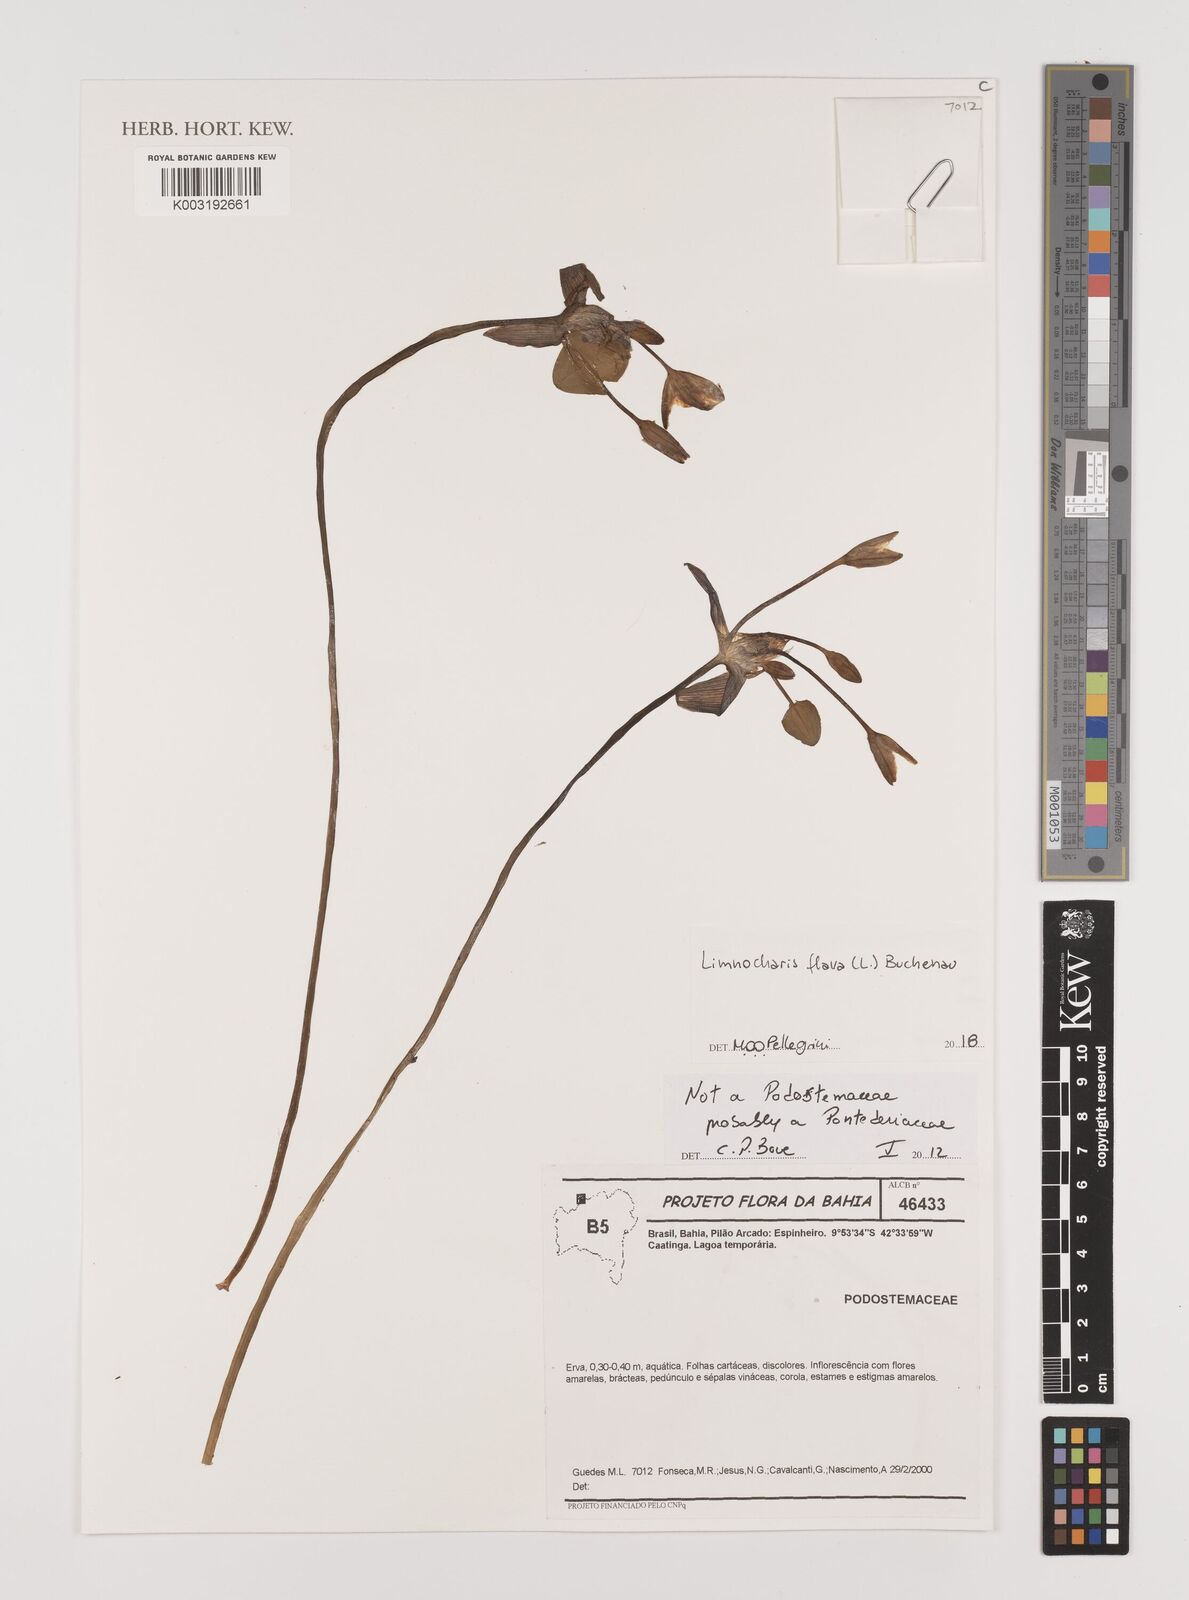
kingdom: Plantae
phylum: Tracheophyta
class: Liliopsida
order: Alismatales
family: Alismataceae
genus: Limnocharis
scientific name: Limnocharis flava
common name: Sawah-flower-rush
